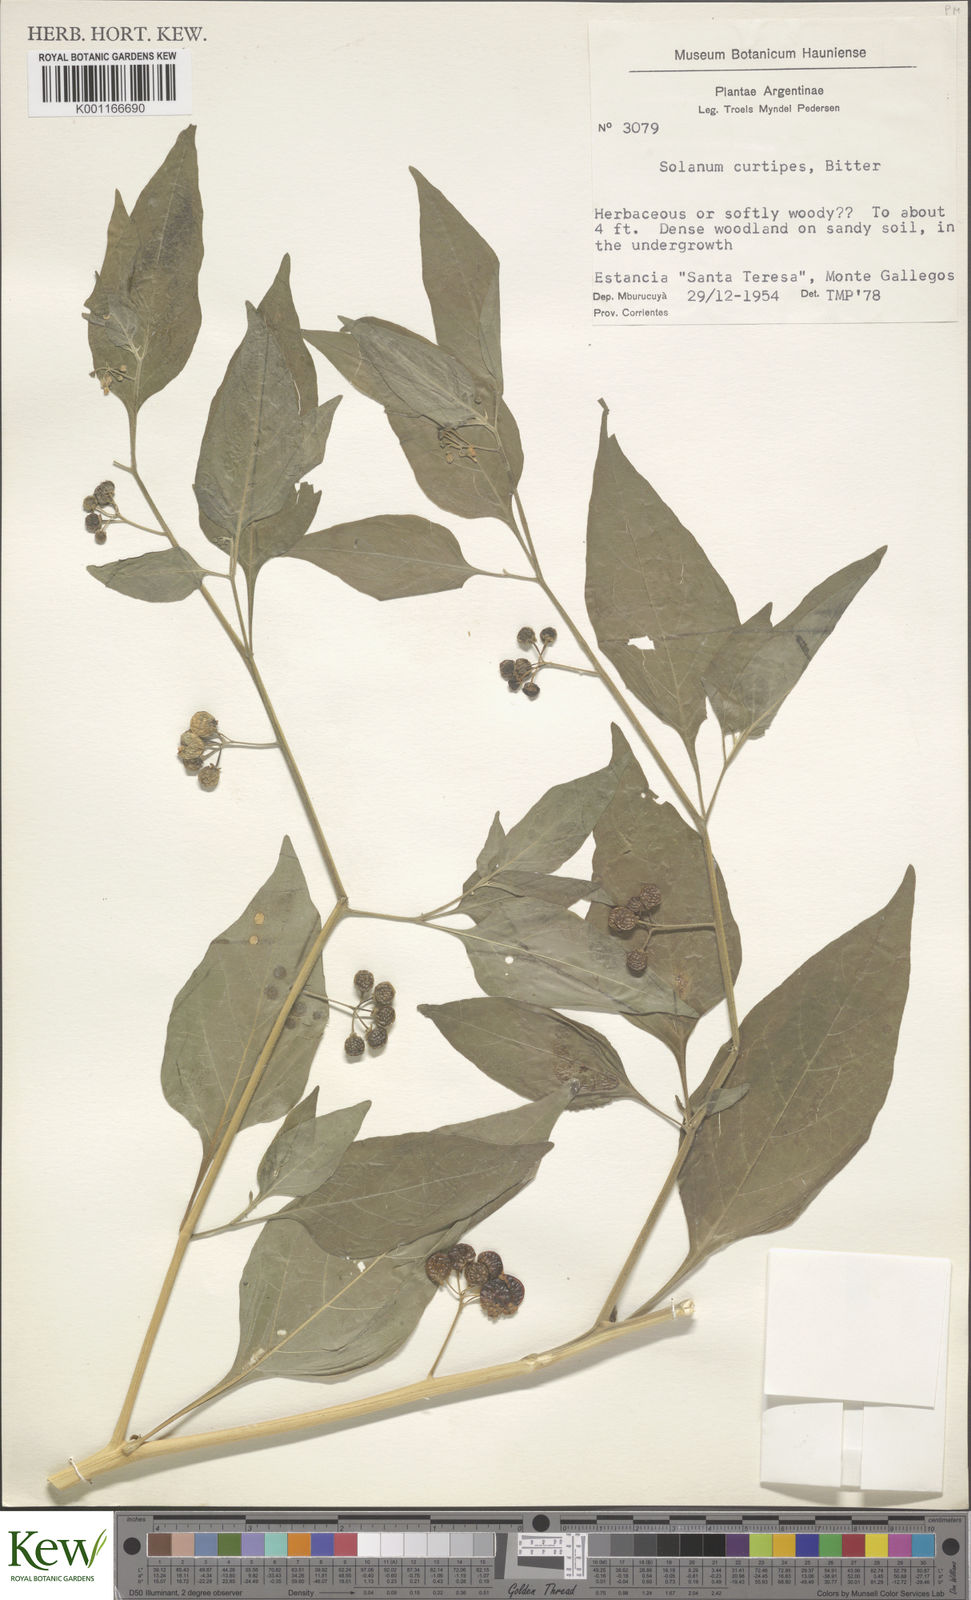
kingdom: Plantae
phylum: Tracheophyta
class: Magnoliopsida
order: Solanales
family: Solanaceae
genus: Solanum
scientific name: Solanum americanum
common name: American black nightshade
